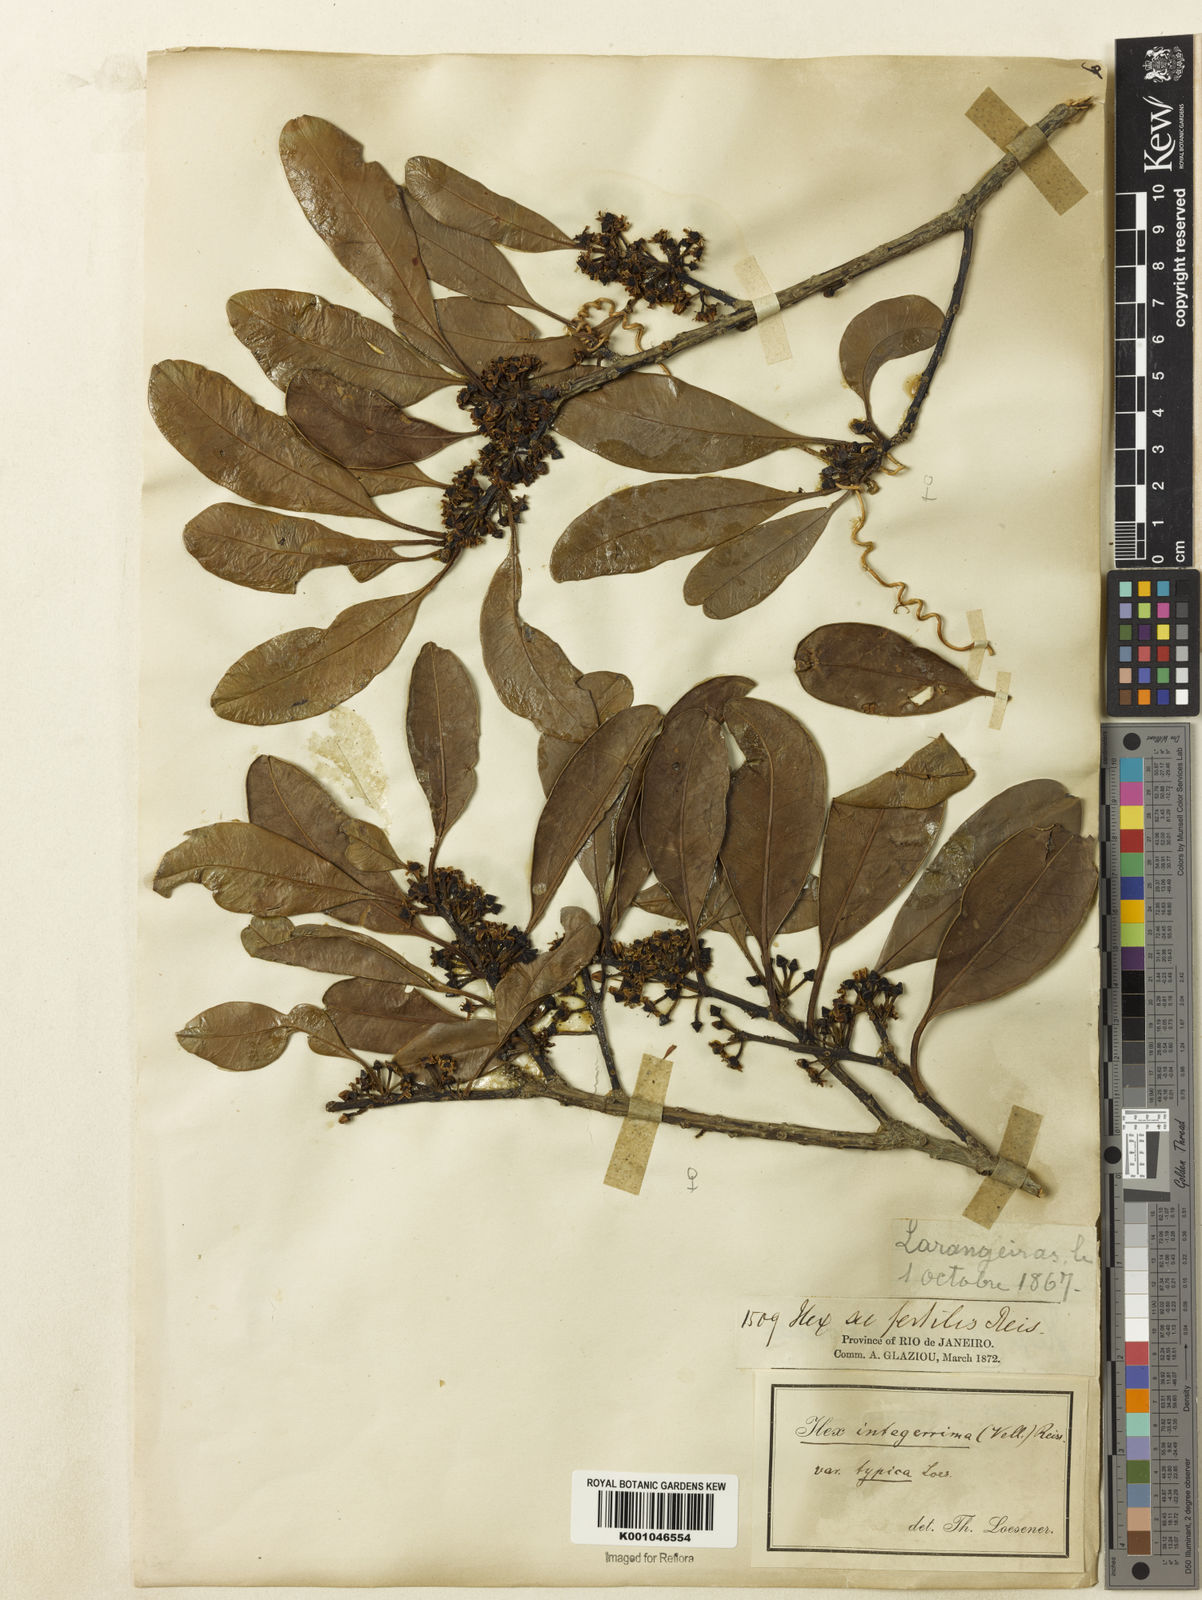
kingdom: Plantae
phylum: Tracheophyta
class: Magnoliopsida
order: Aquifoliales
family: Aquifoliaceae
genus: Ilex
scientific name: Ilex integerrima
